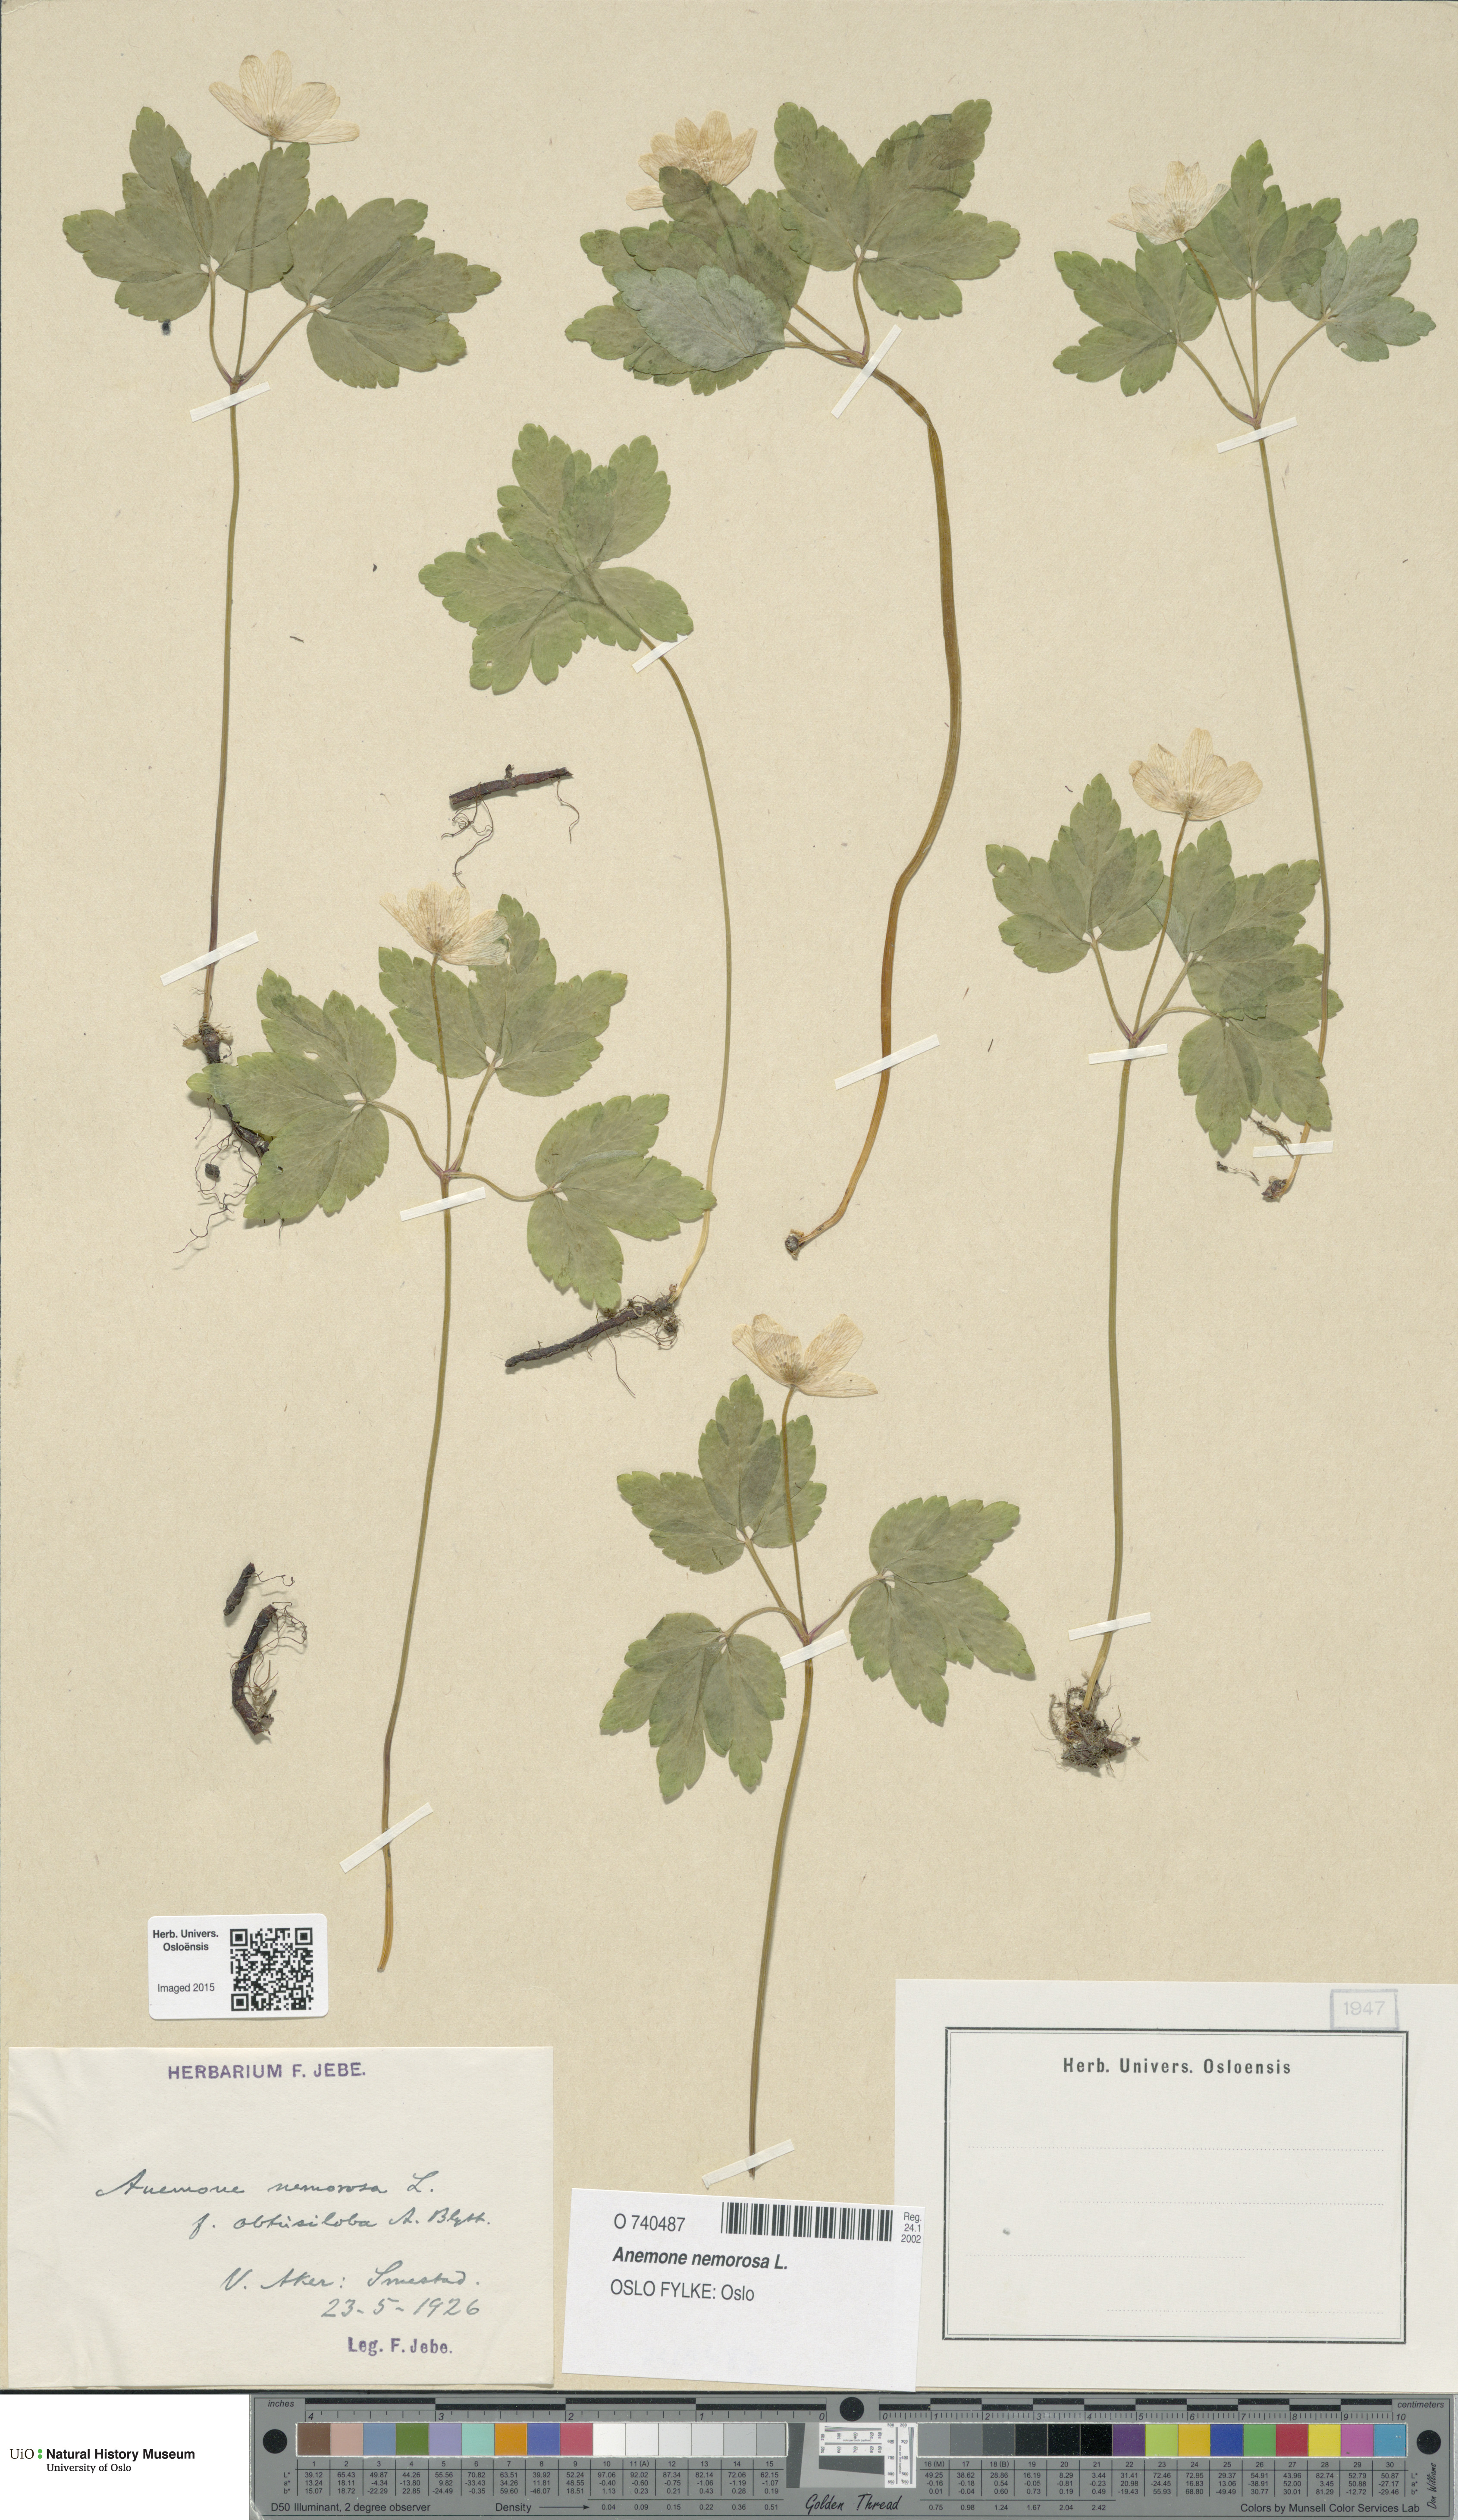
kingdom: Plantae
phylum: Tracheophyta
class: Magnoliopsida
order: Ranunculales
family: Ranunculaceae
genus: Anemone
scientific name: Anemone nemorosa
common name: Wood anemone
